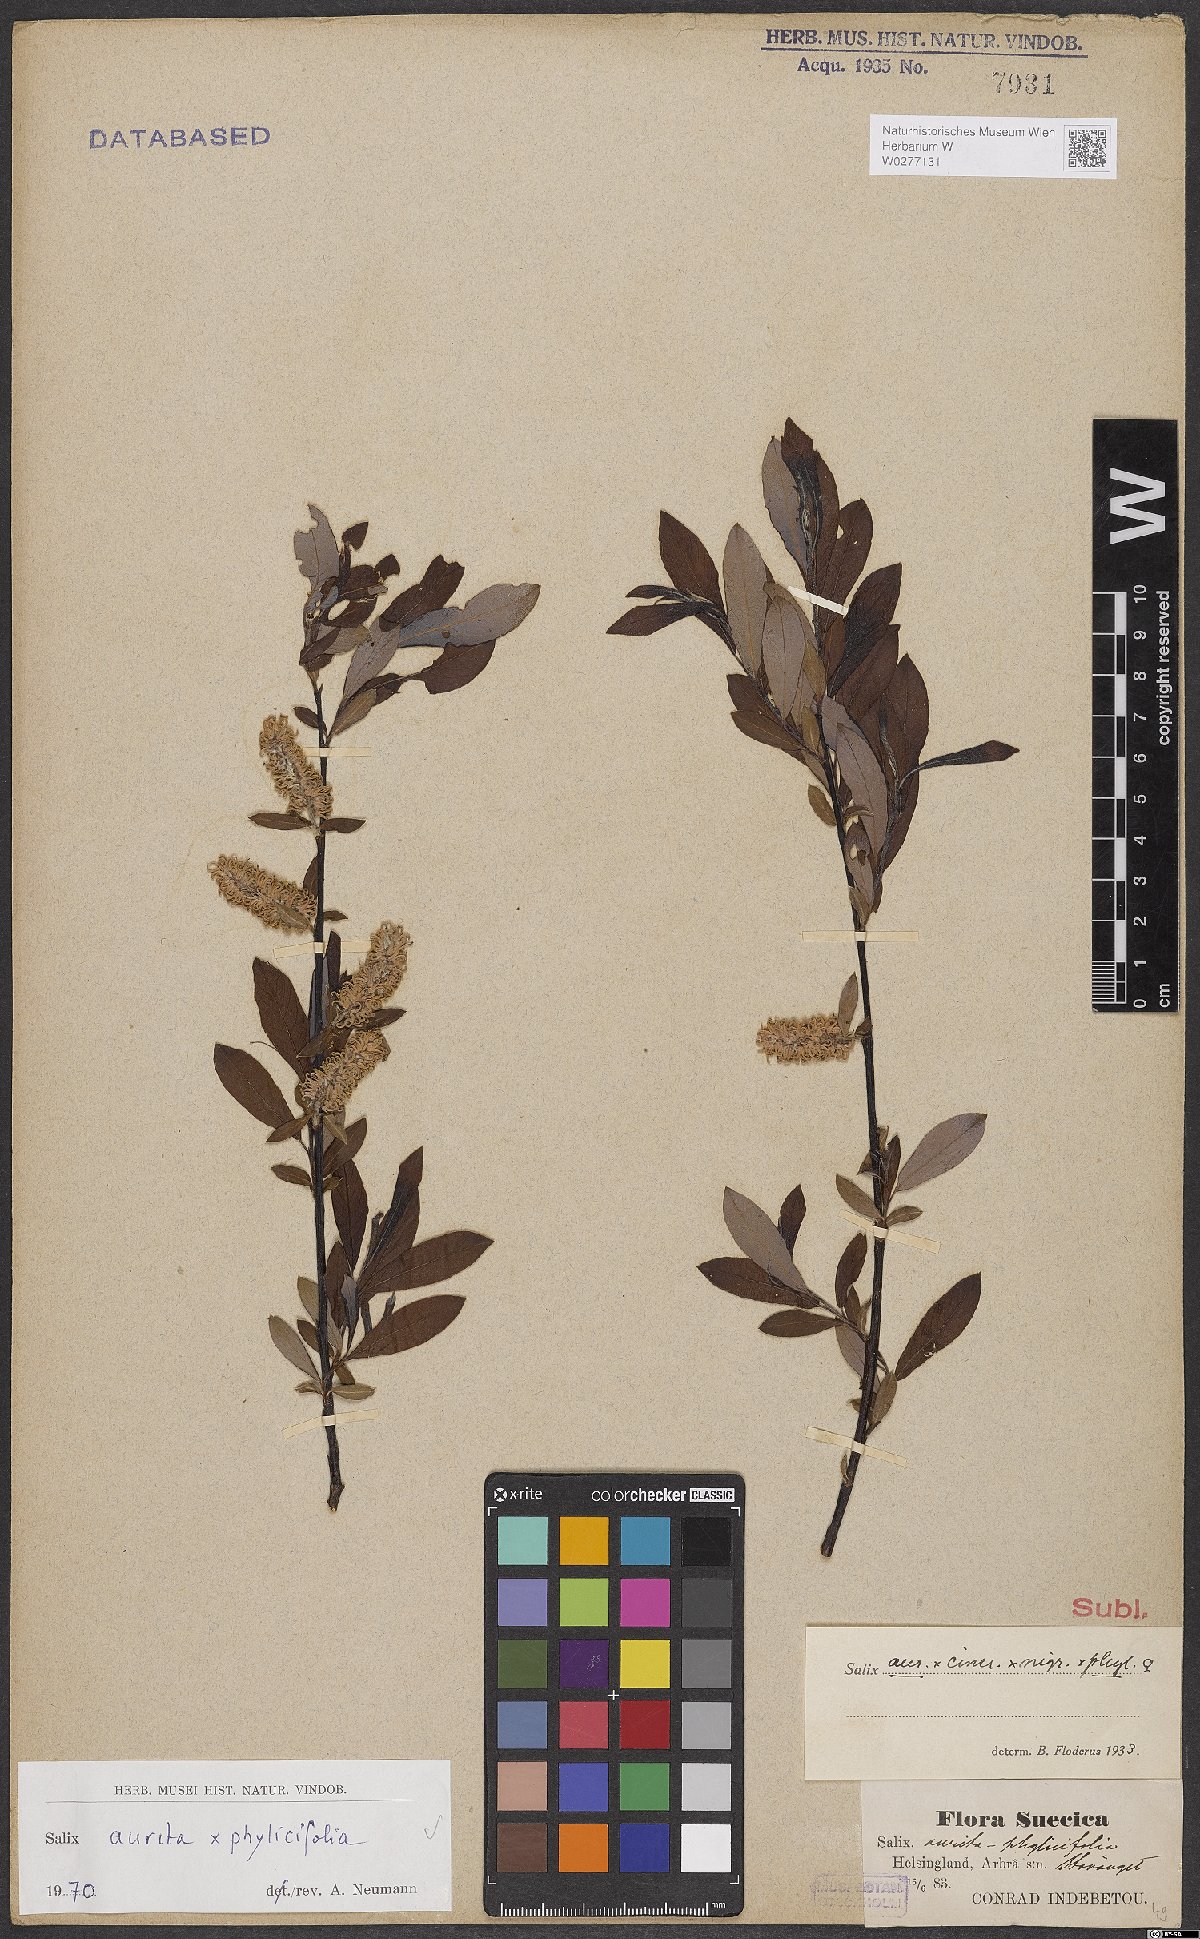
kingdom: Plantae
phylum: Tracheophyta
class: Magnoliopsida
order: Malpighiales
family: Salicaceae
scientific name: Salicaceae
